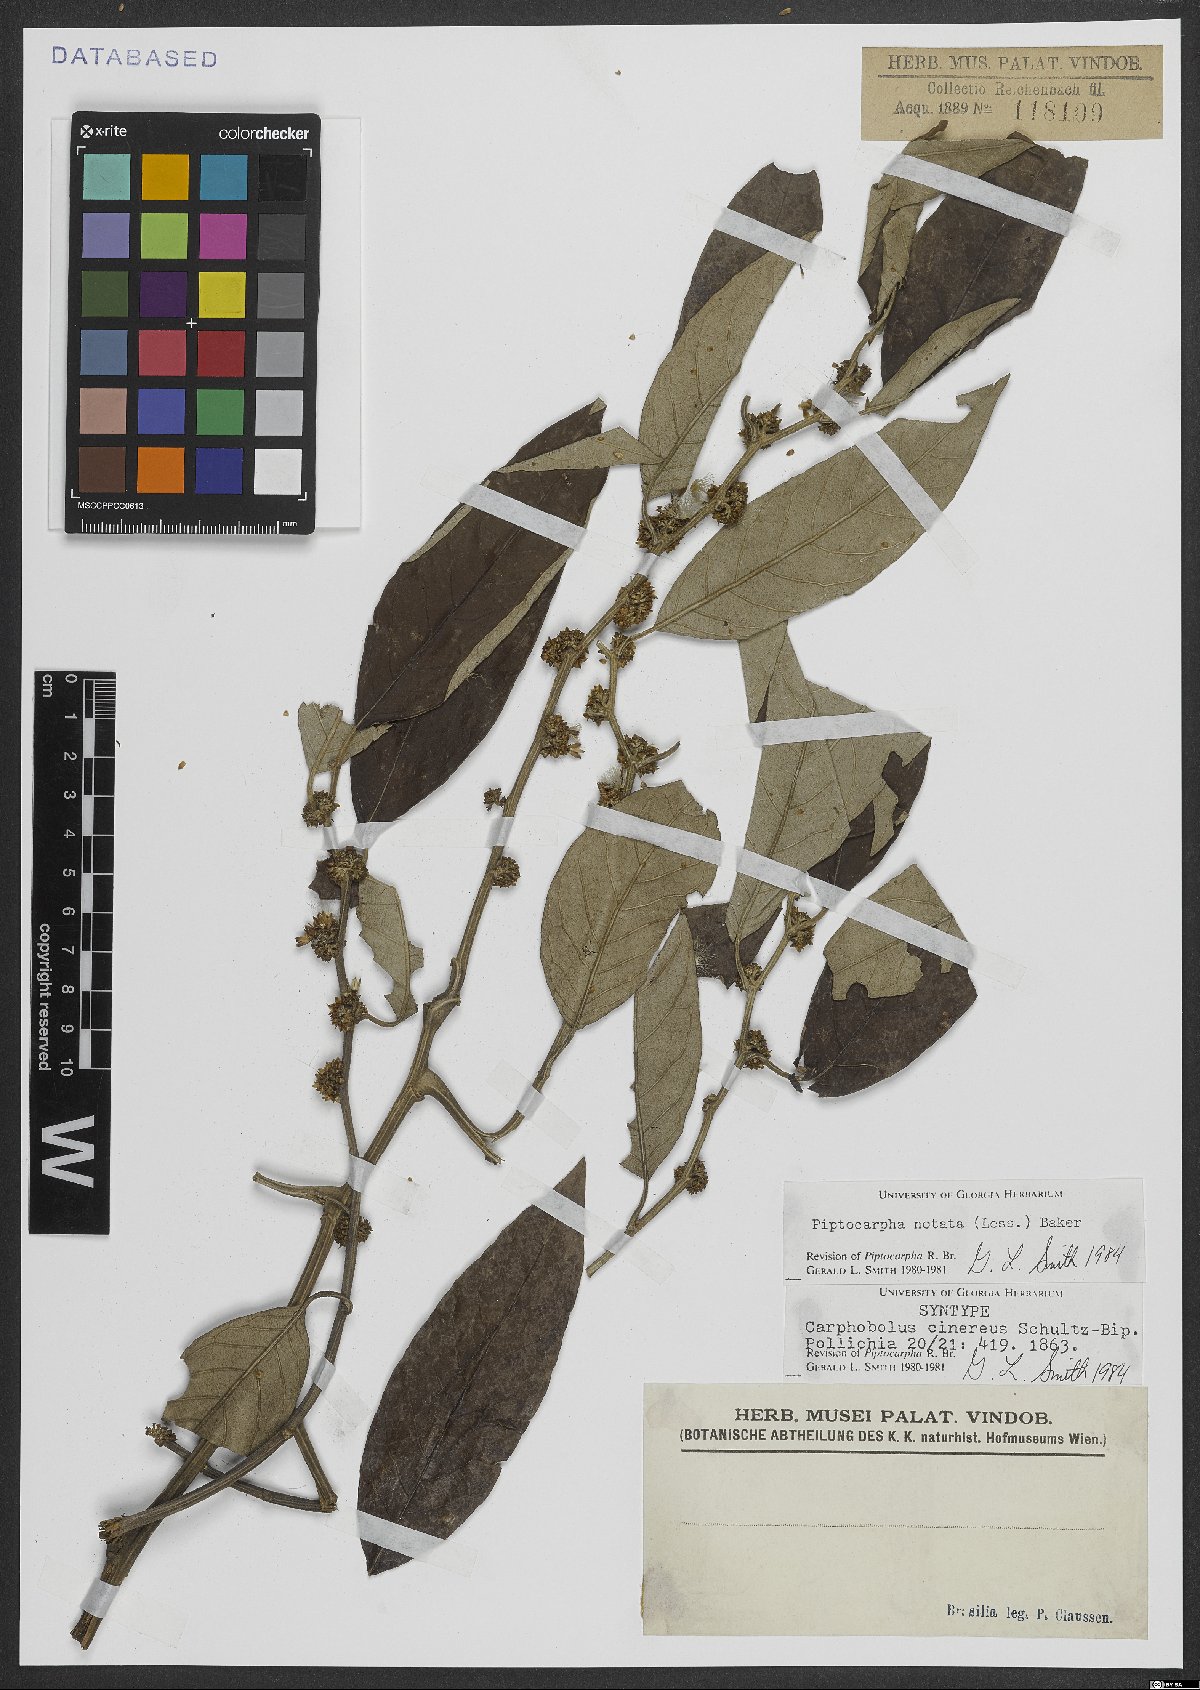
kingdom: Plantae
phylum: Tracheophyta
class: Magnoliopsida
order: Asterales
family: Asteraceae
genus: Piptocarpha
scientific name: Piptocarpha notata
